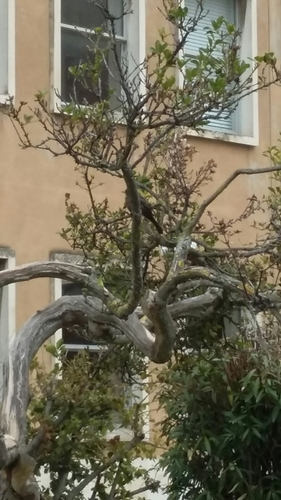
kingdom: Animalia
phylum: Chordata
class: Aves
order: Passeriformes
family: Turdidae
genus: Turdus
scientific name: Turdus merula
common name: Common blackbird
